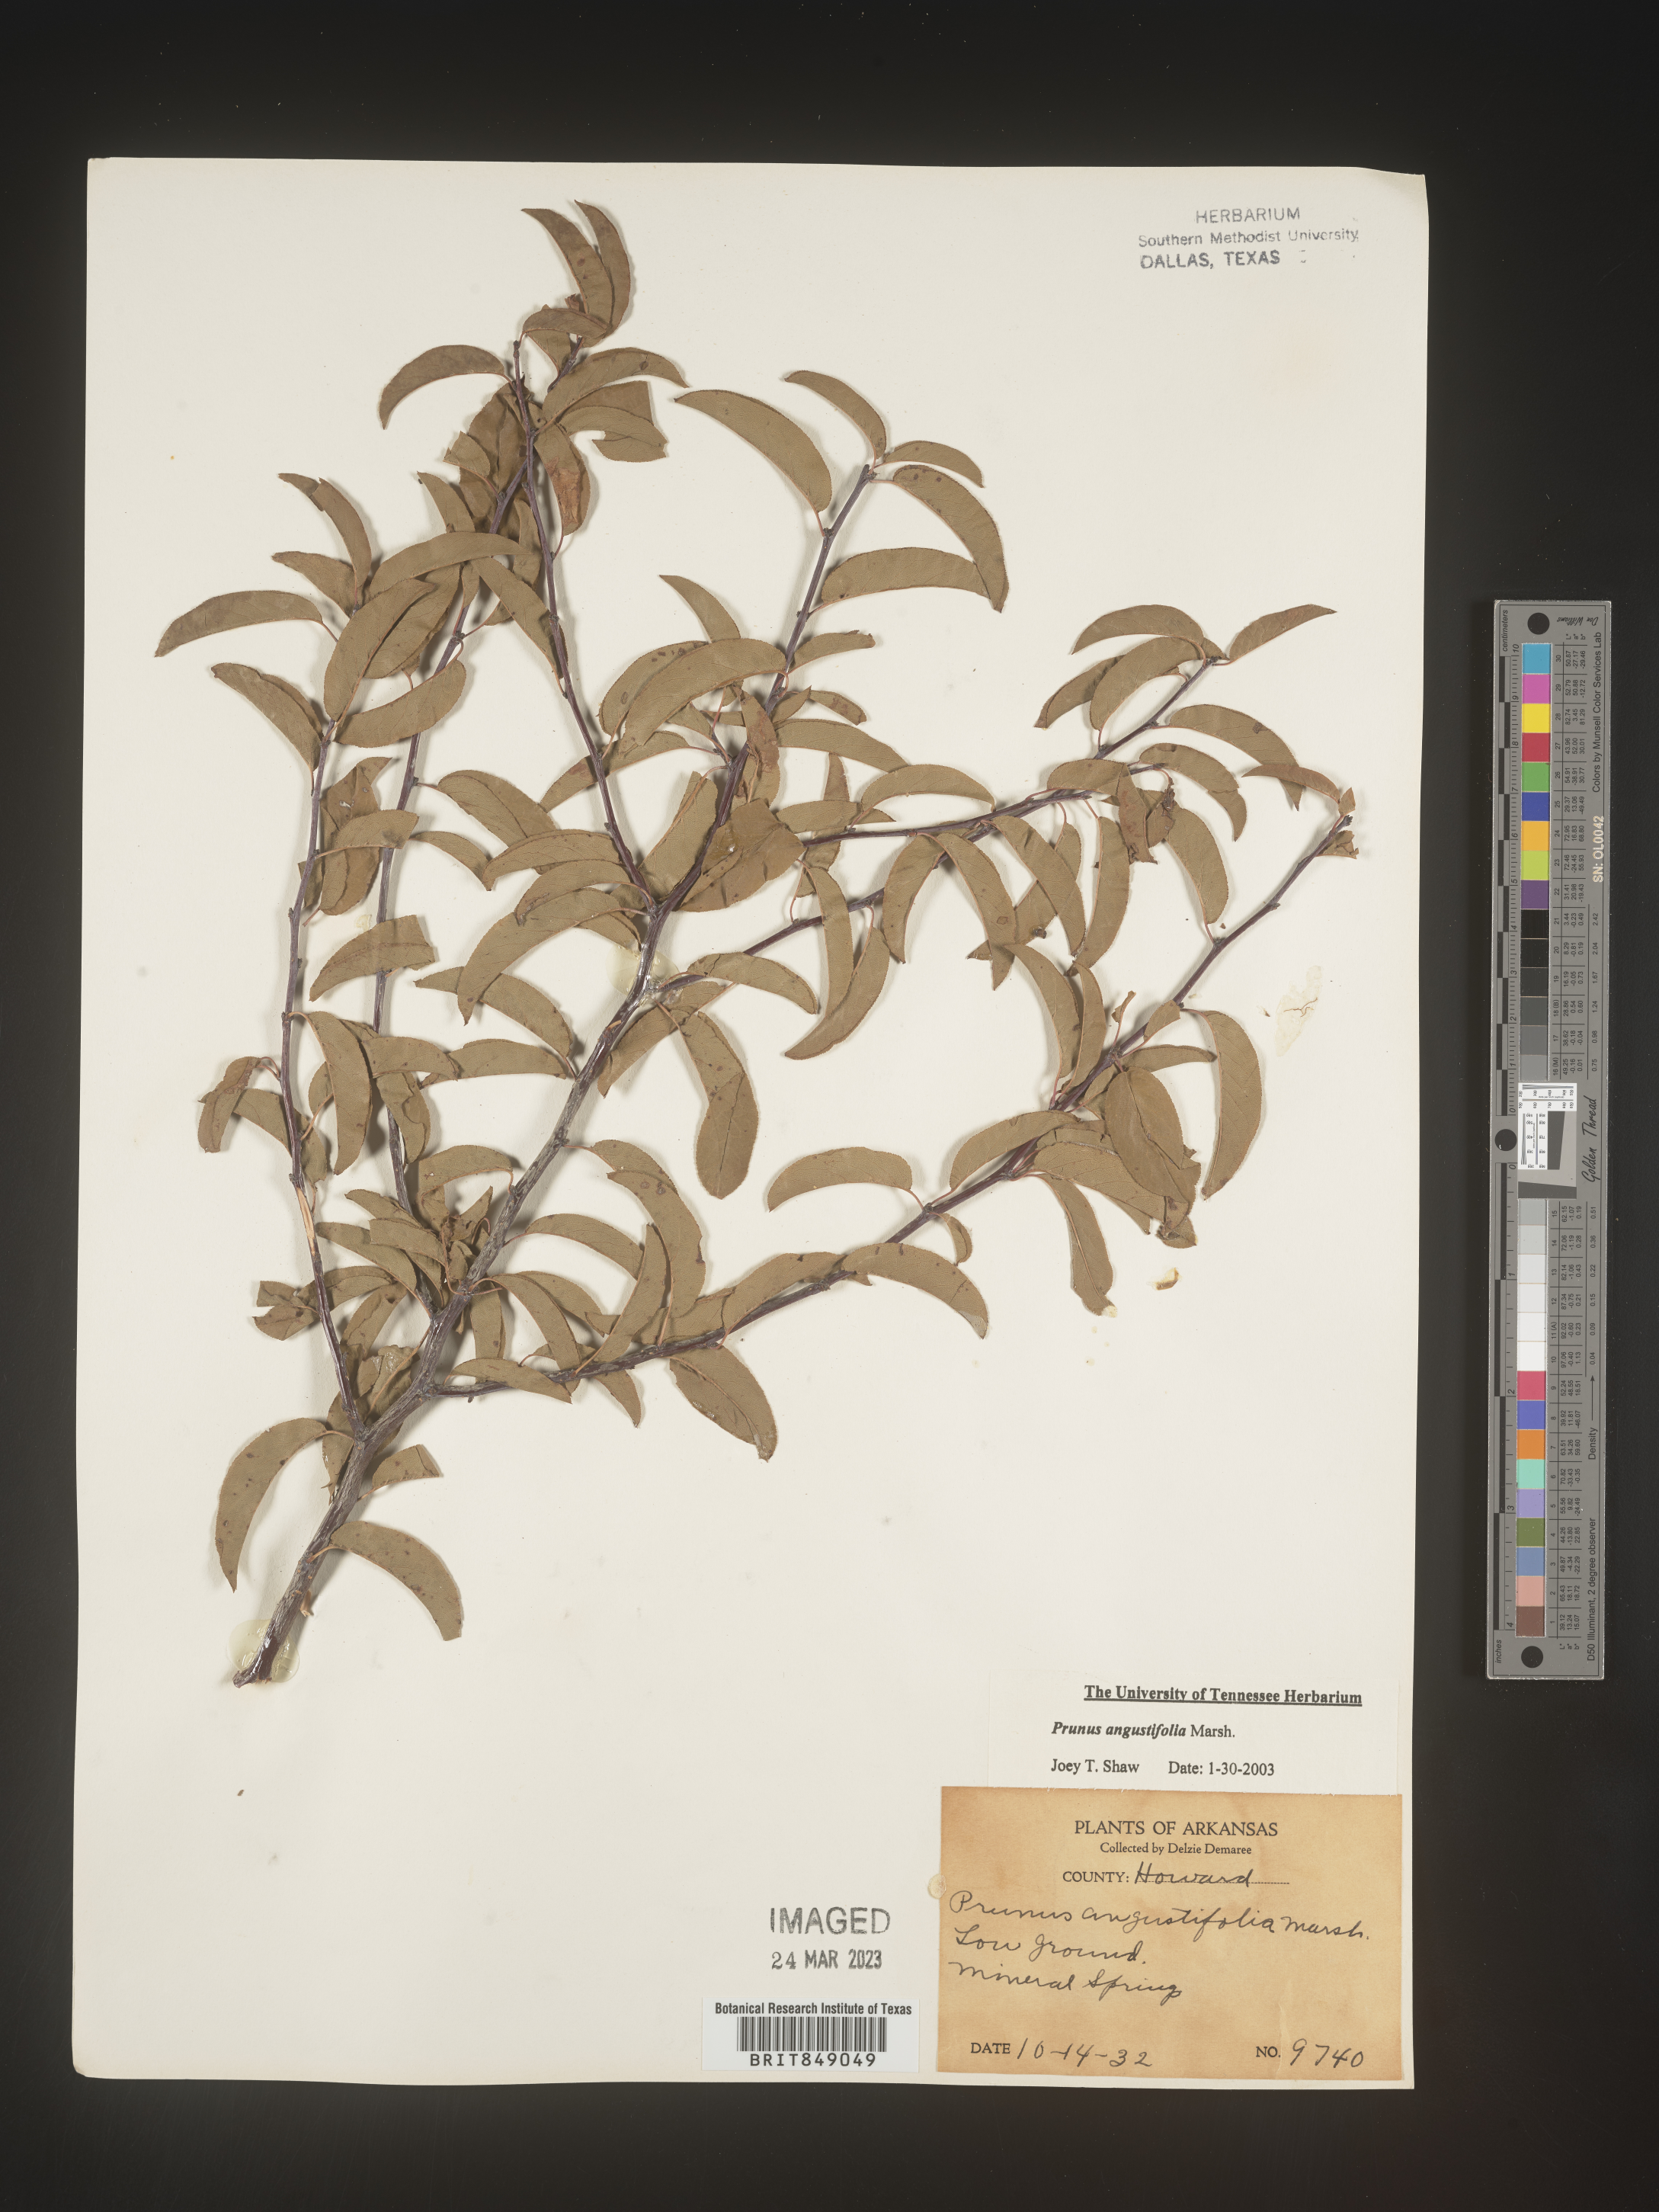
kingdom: Plantae
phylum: Tracheophyta
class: Magnoliopsida
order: Rosales
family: Rosaceae
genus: Prunus
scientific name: Prunus angustifolia
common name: Cherokee plum
